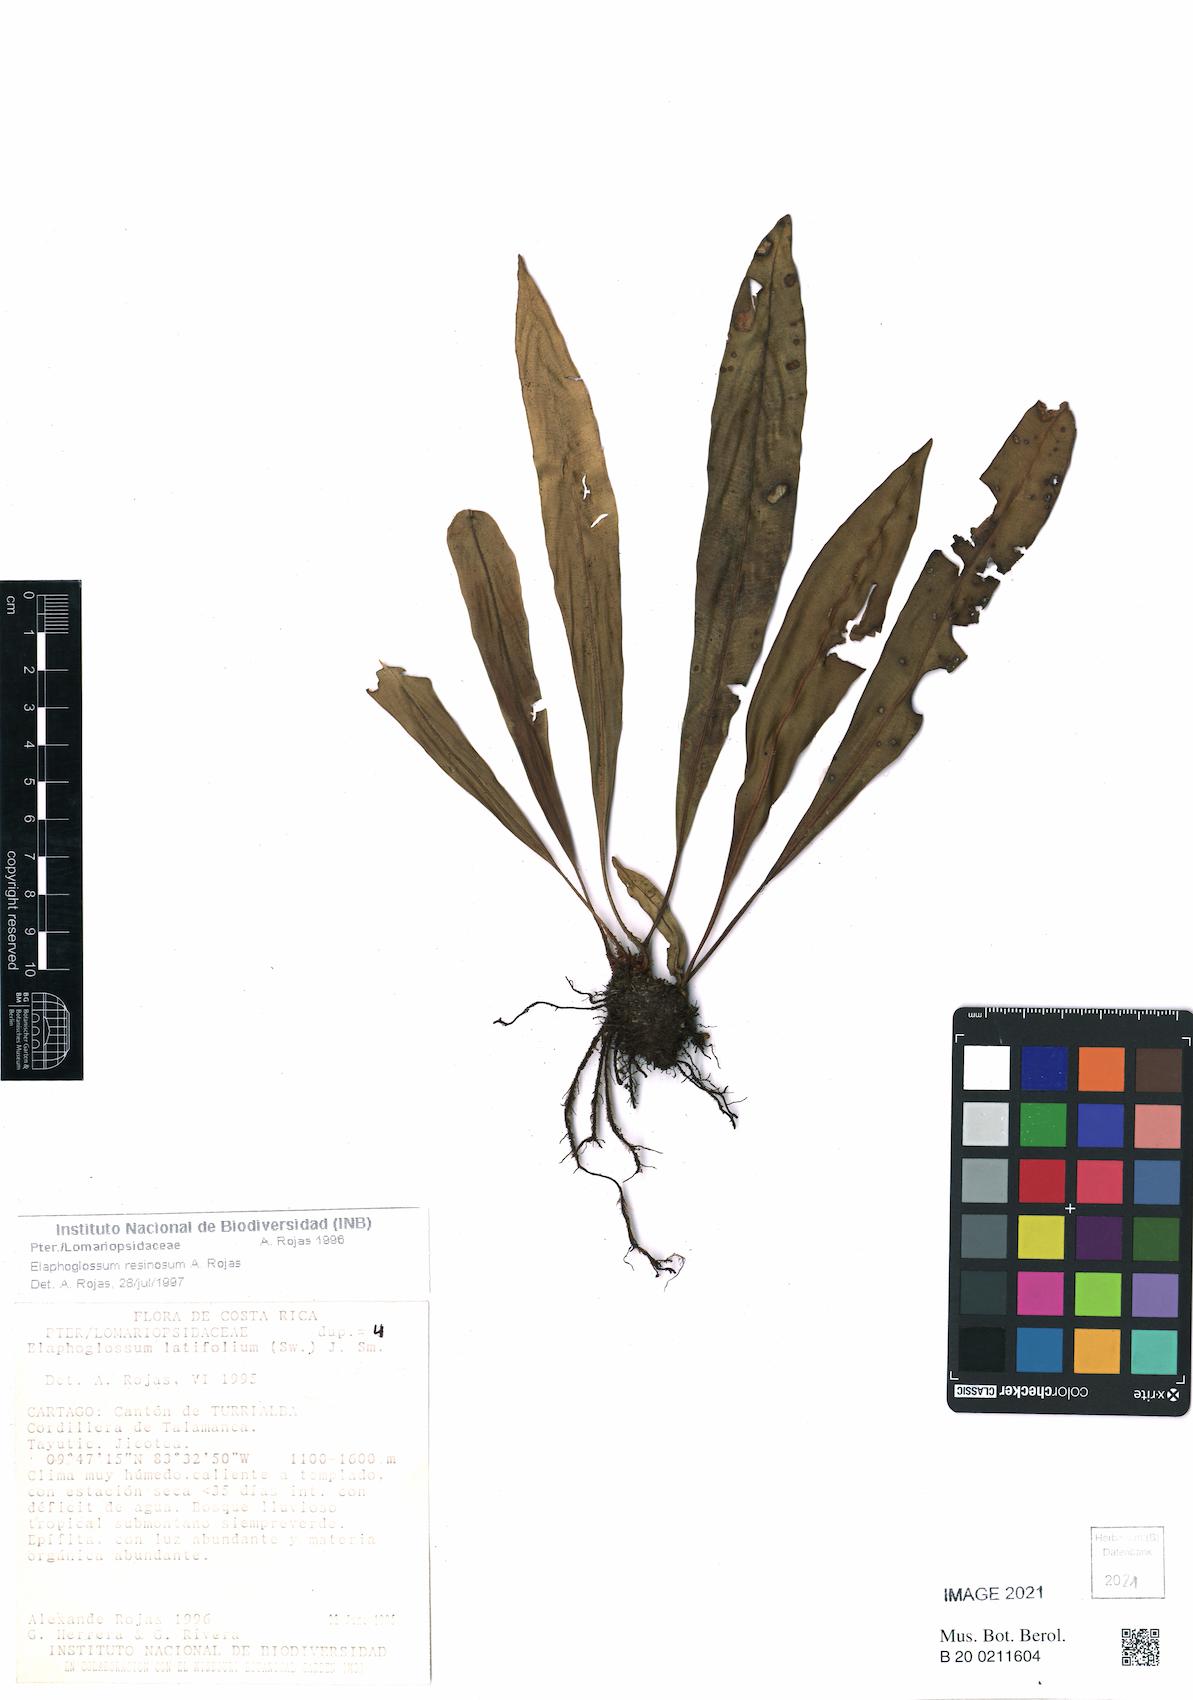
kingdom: Plantae
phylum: Tracheophyta
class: Polypodiopsida
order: Polypodiales
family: Dryopteridaceae
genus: Elaphoglossum
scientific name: Elaphoglossum latifolium
